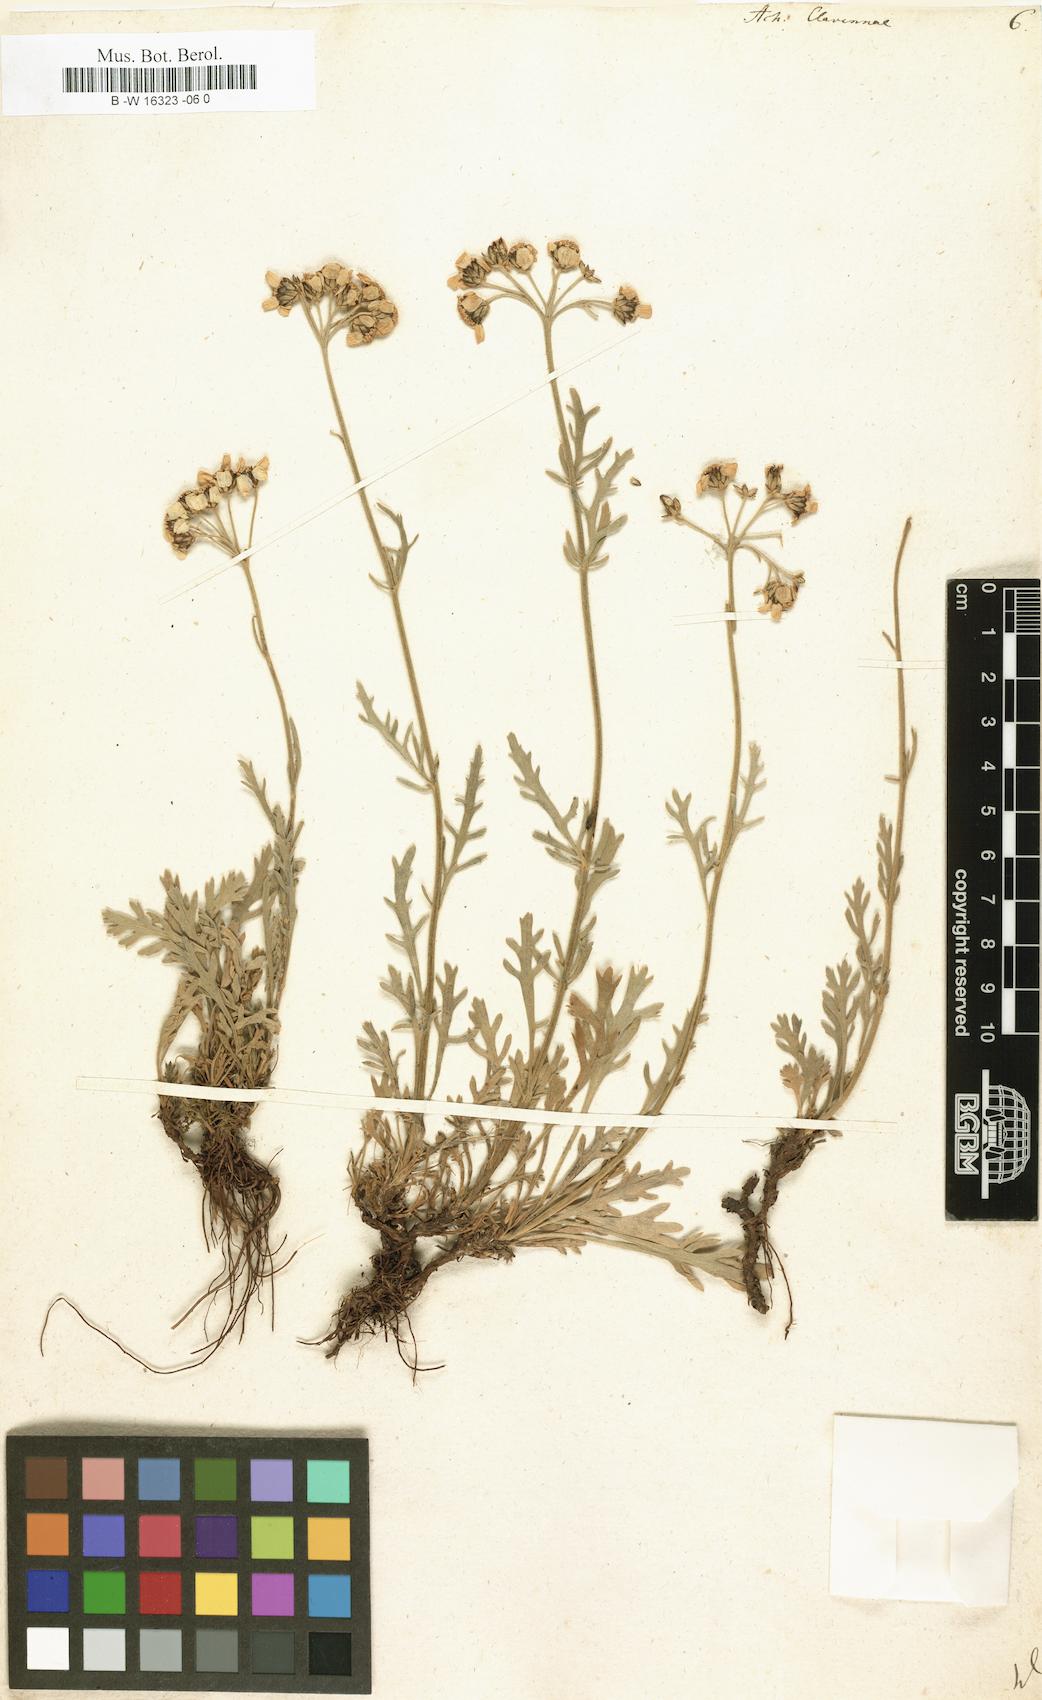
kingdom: Plantae
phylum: Tracheophyta
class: Magnoliopsida
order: Asterales
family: Asteraceae
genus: Achillea
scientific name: Achillea clavennae
